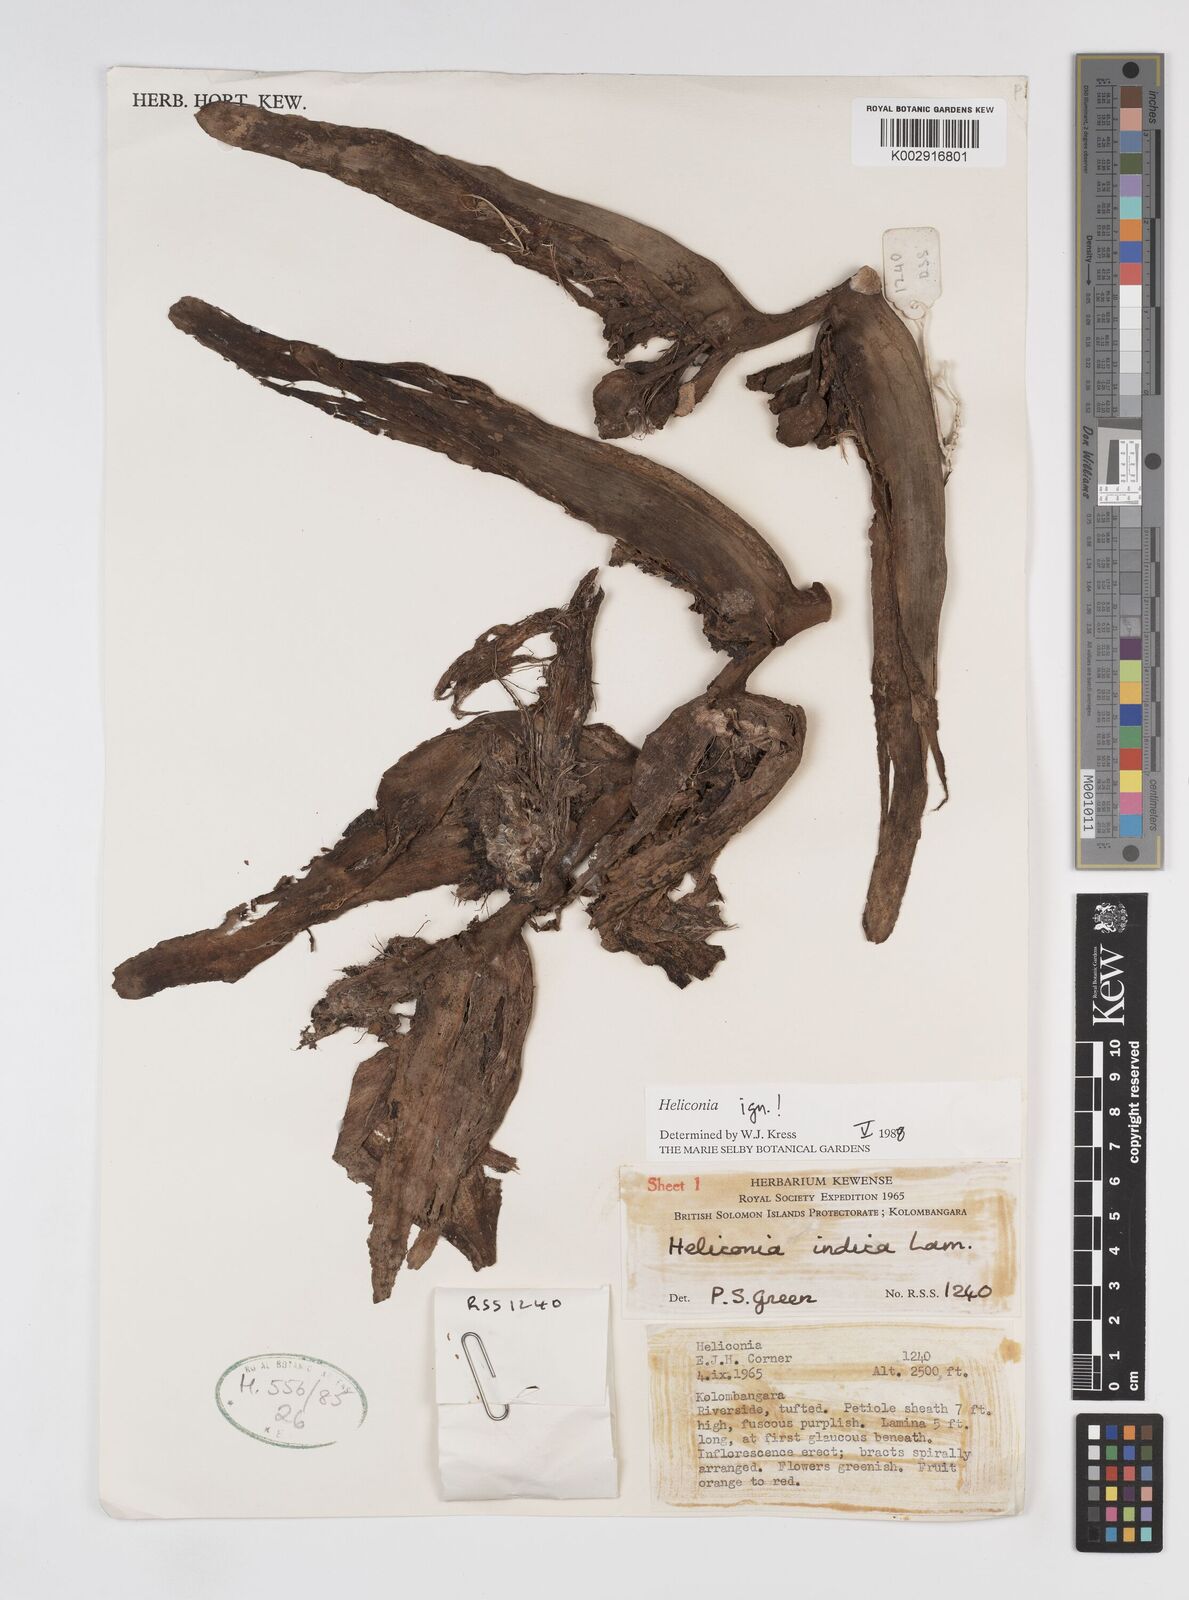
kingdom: Plantae
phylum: Tracheophyta
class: Liliopsida
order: Zingiberales
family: Heliconiaceae
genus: Heliconia
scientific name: Heliconia
